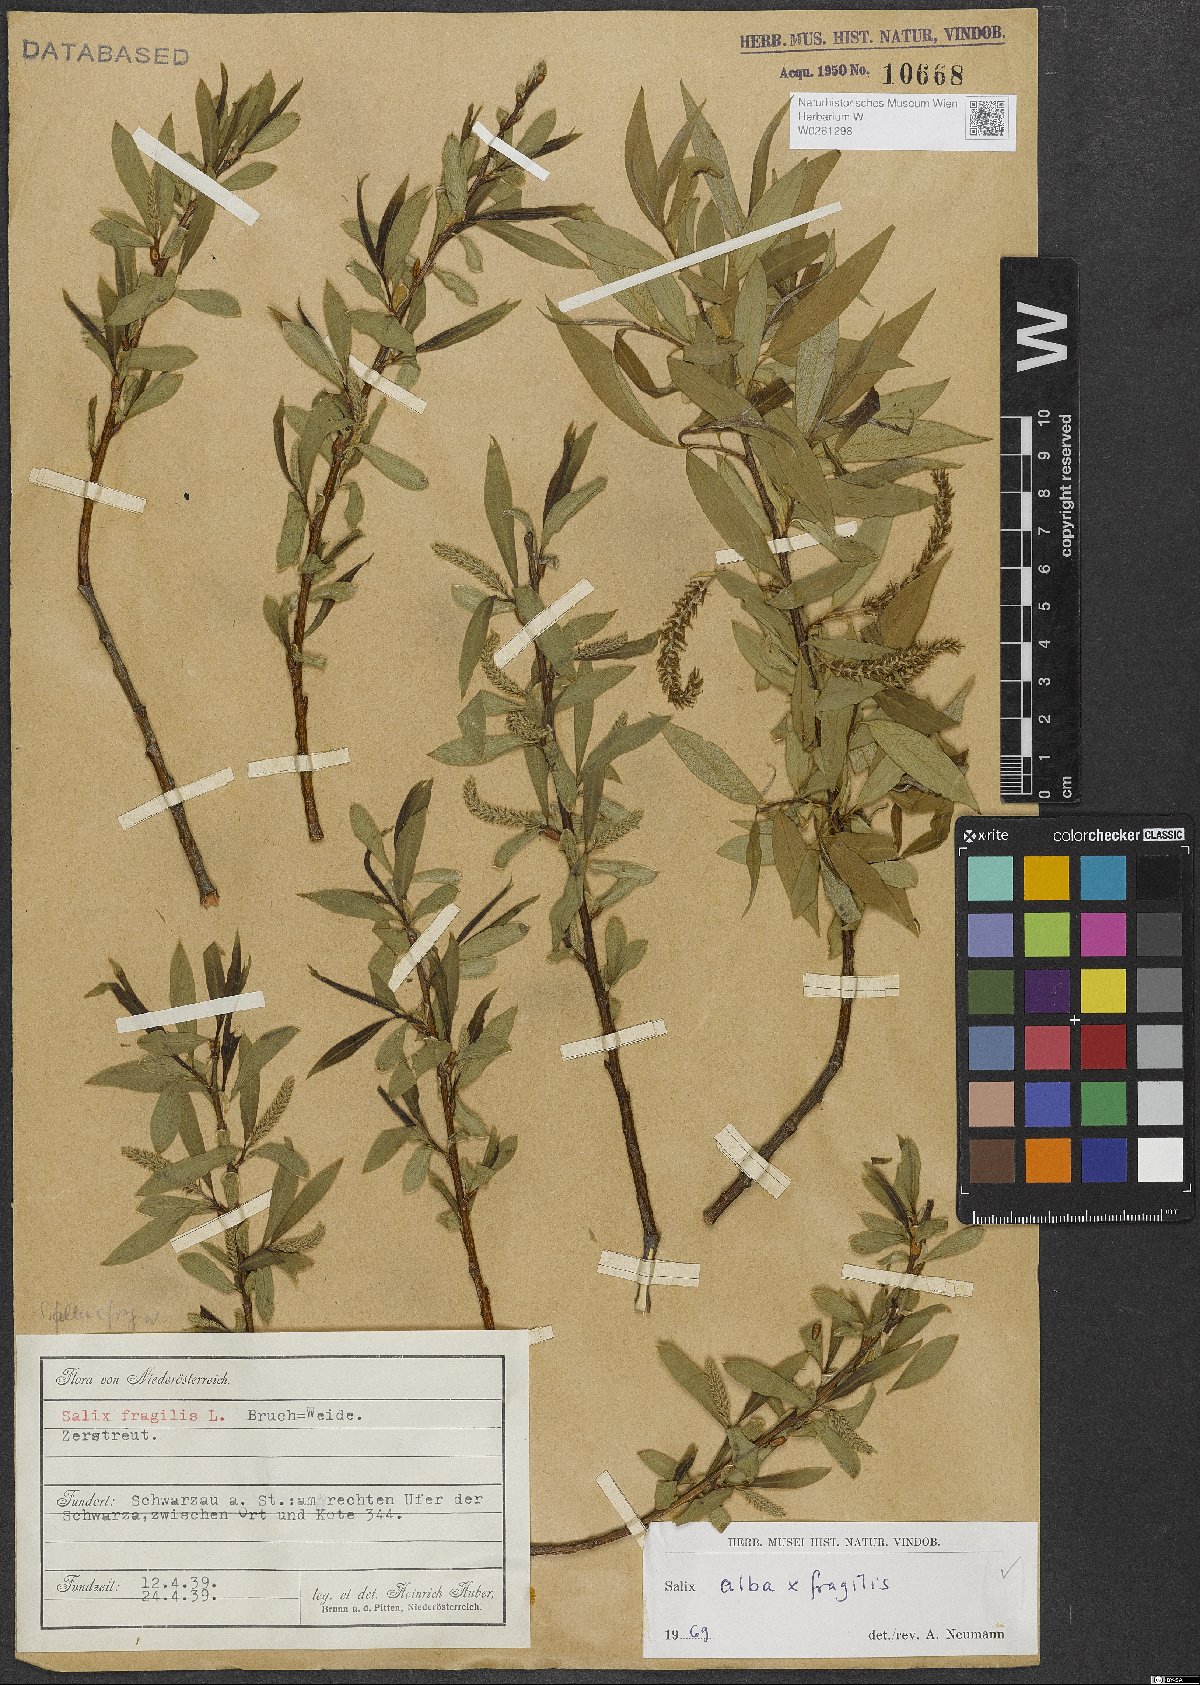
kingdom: Plantae
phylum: Tracheophyta
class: Magnoliopsida
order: Malpighiales
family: Salicaceae
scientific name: Salicaceae
